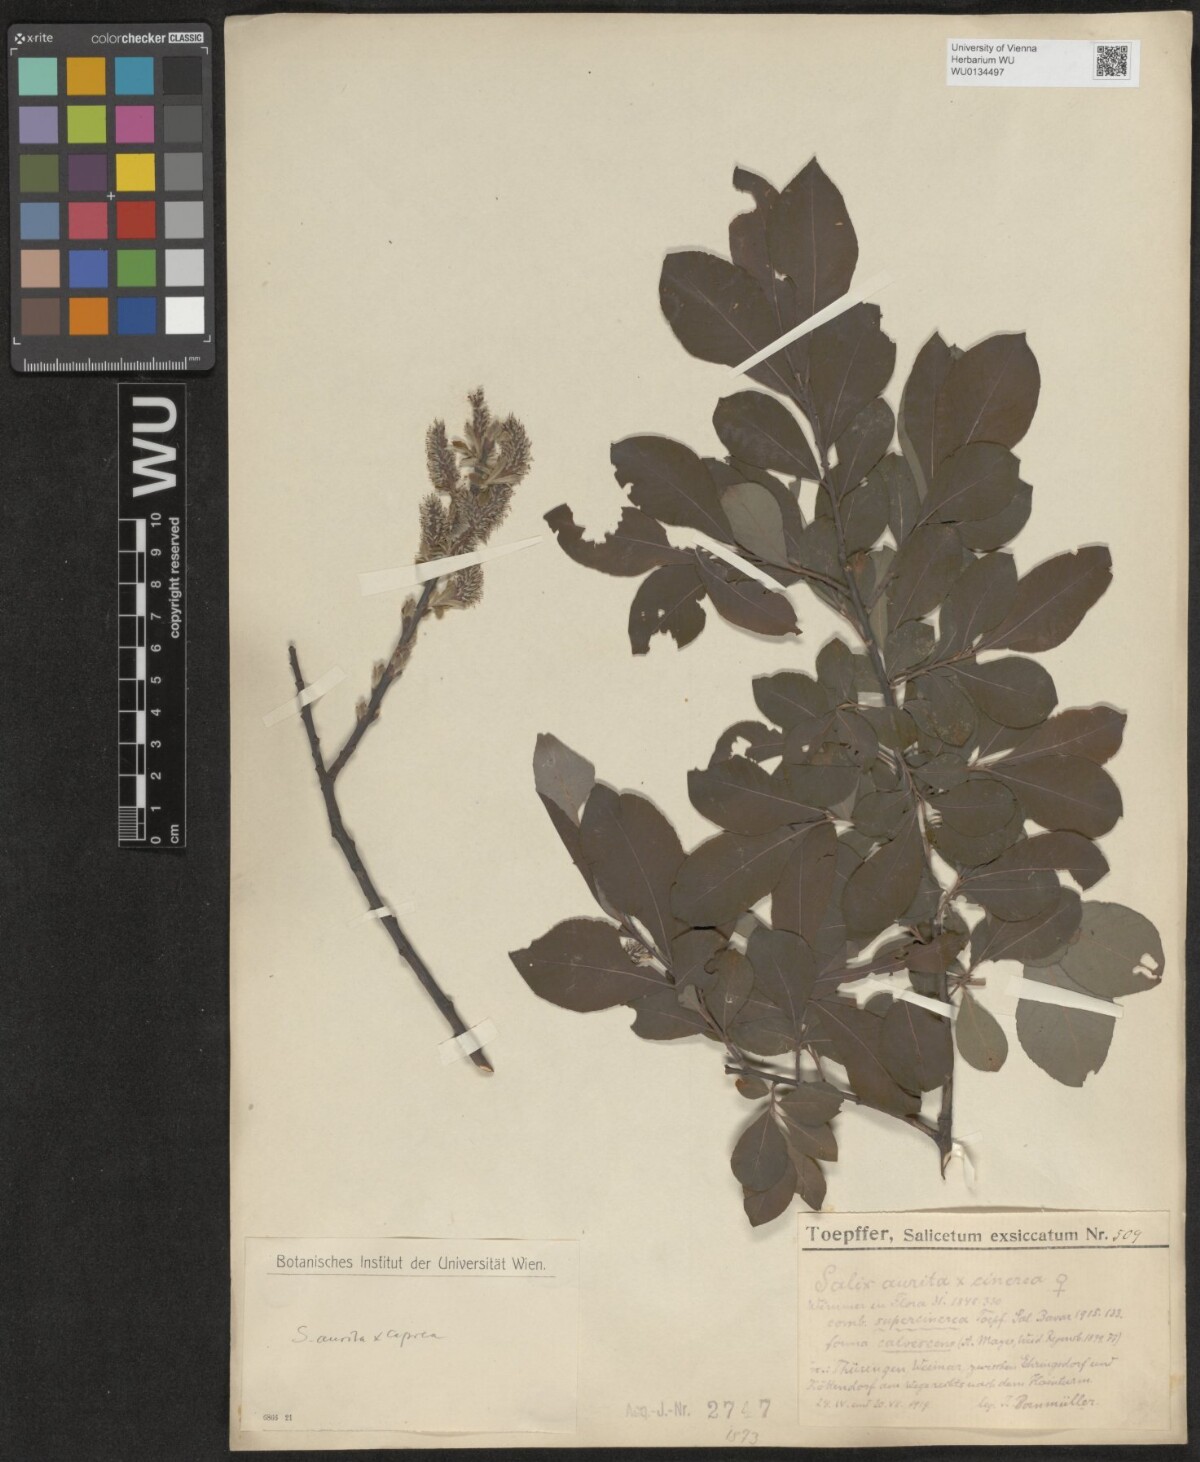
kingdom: Plantae
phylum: Tracheophyta
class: Magnoliopsida
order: Malpighiales
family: Salicaceae
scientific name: Salicaceae
